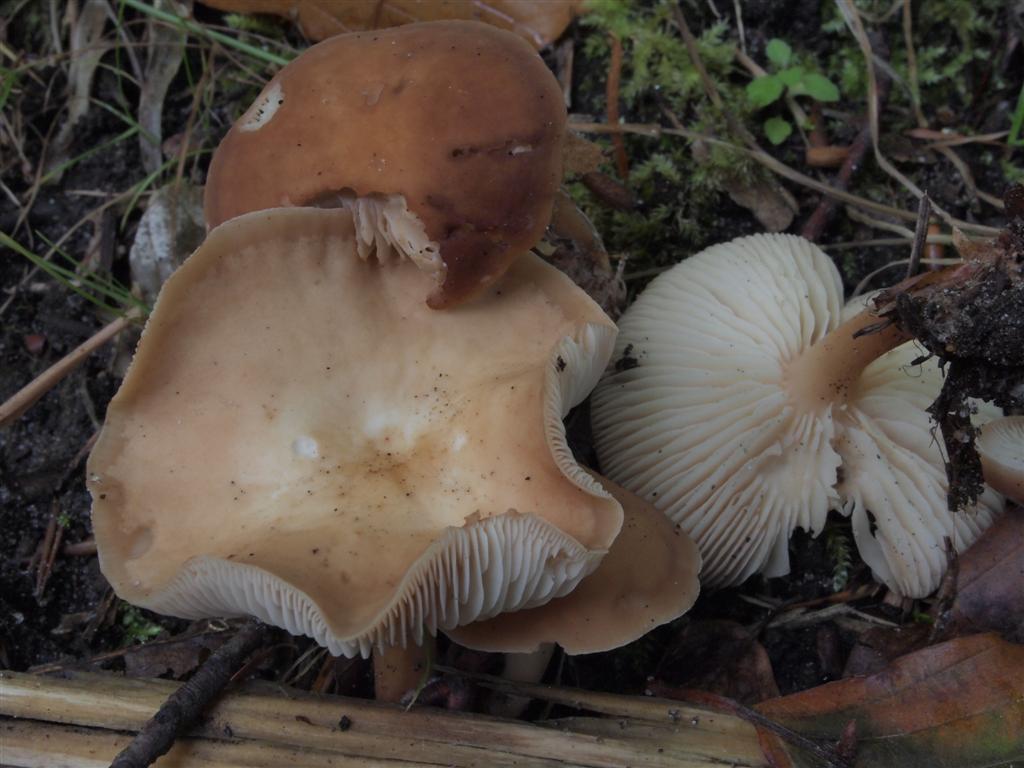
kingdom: Fungi
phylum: Basidiomycota
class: Agaricomycetes
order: Agaricales
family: Omphalotaceae
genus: Gymnopus
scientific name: Gymnopus dryophilus
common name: løv-fladhat
